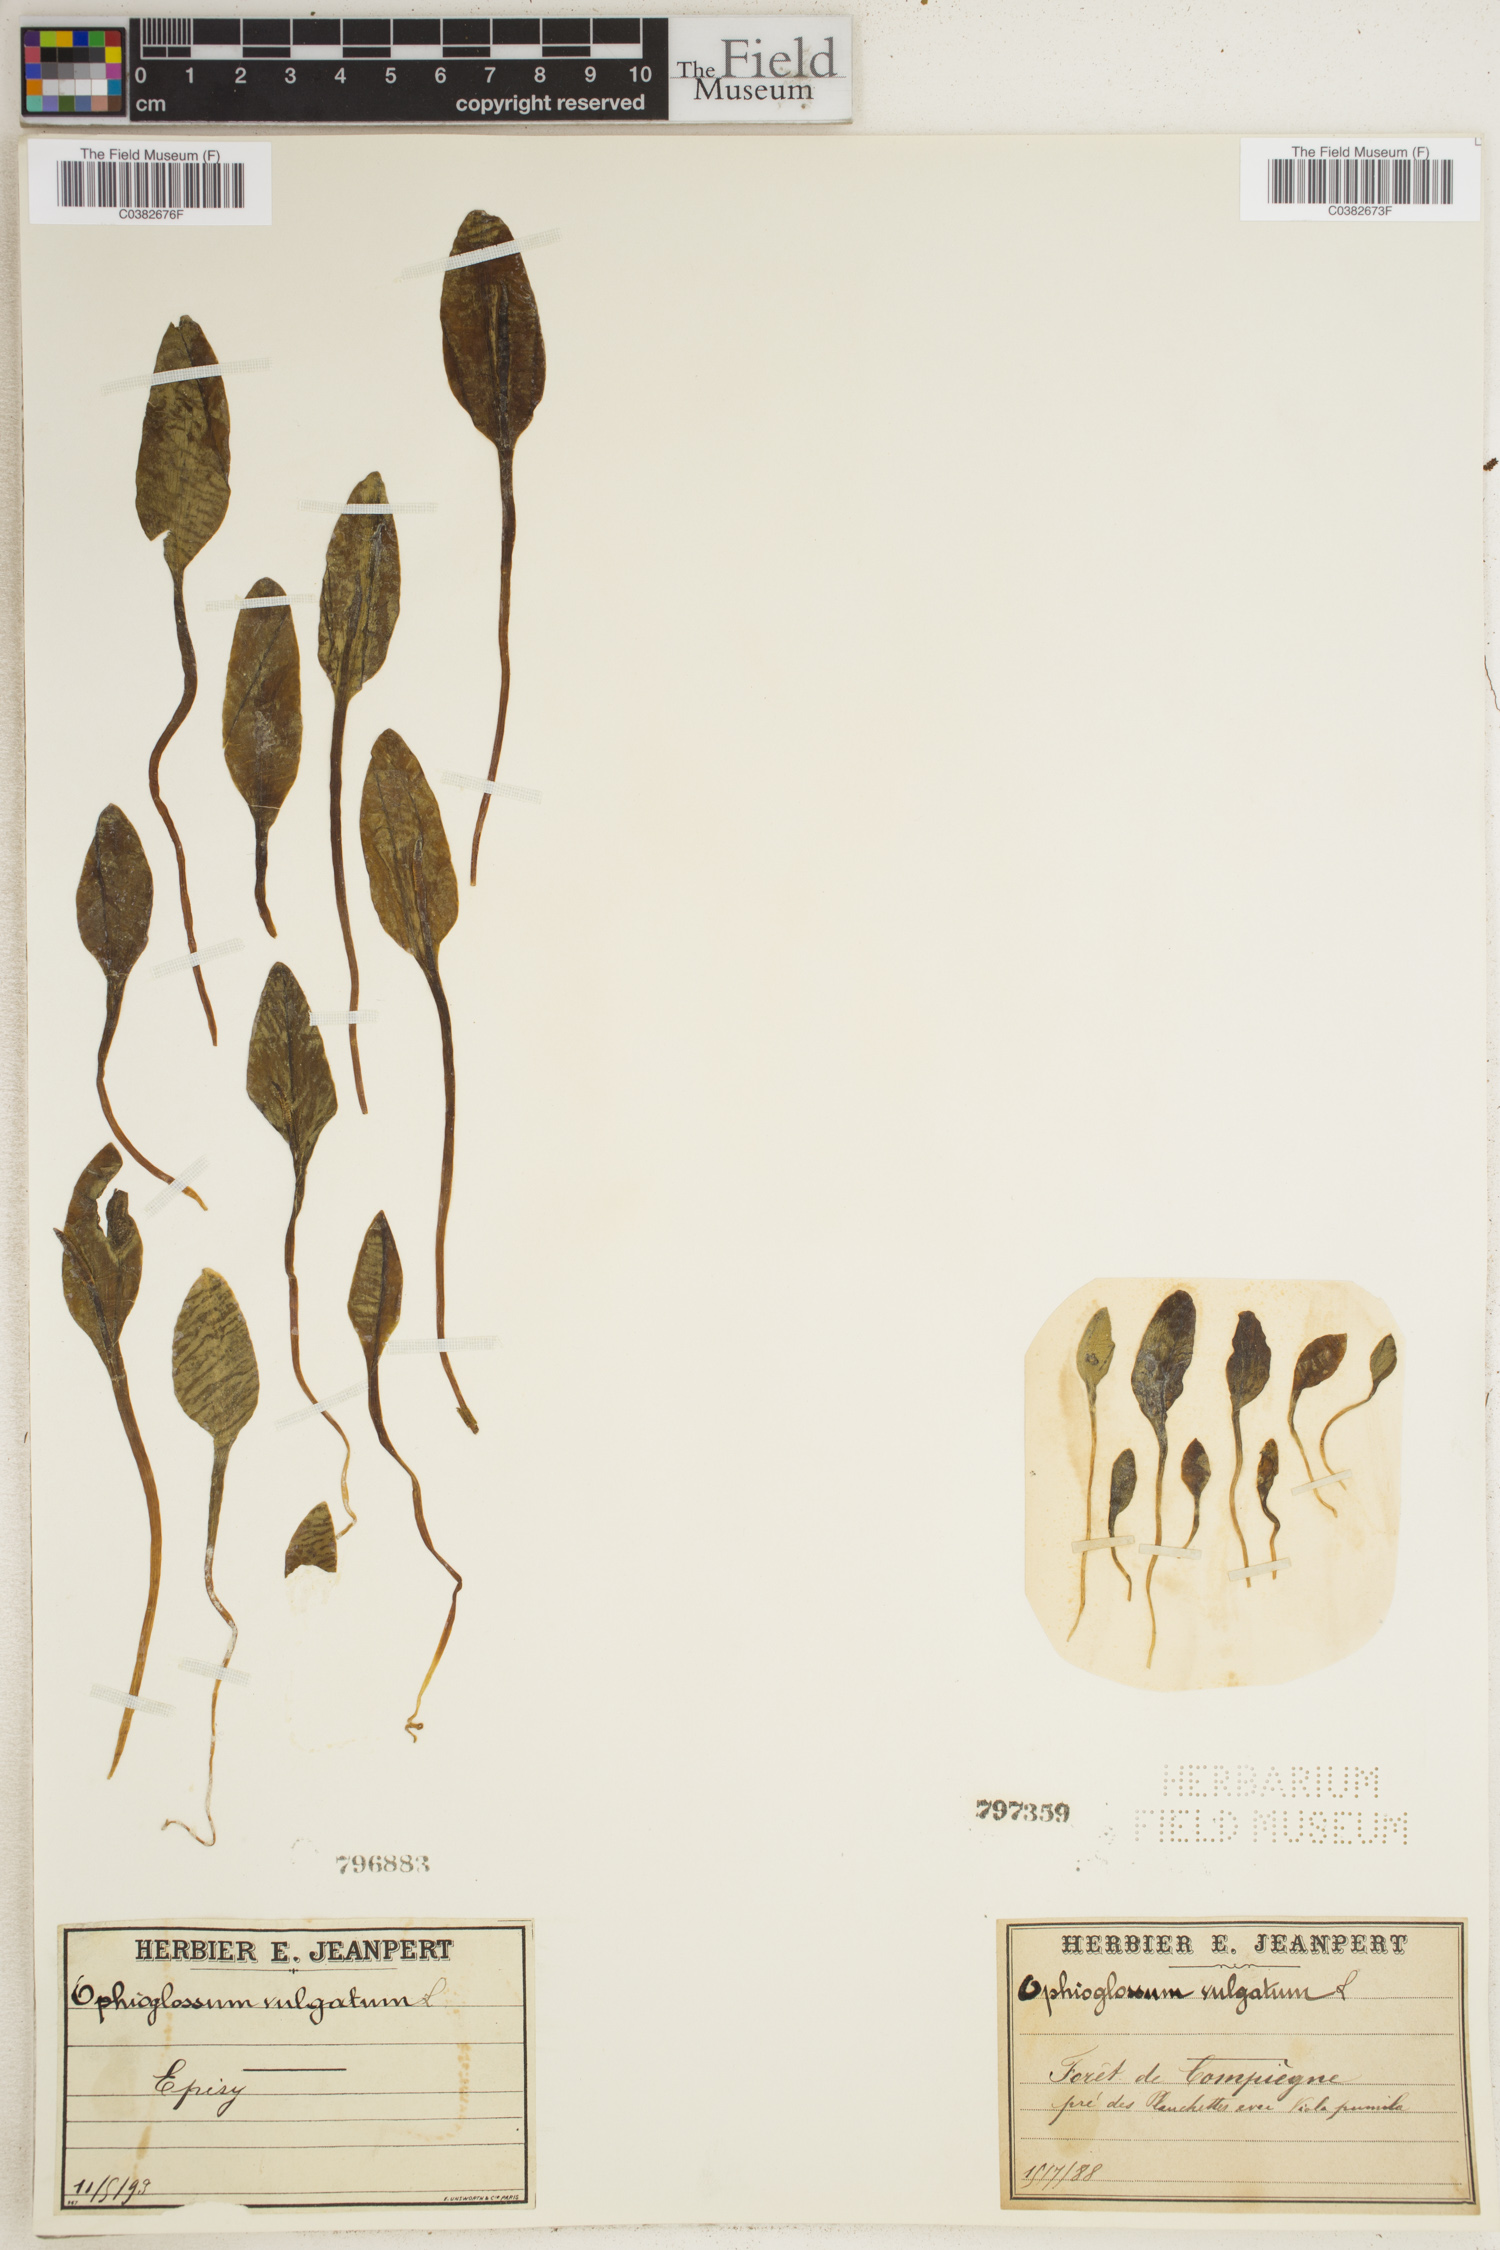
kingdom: Plantae
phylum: Tracheophyta
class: Polypodiopsida
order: Ophioglossales
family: Ophioglossaceae
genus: Ophioglossum
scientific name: Ophioglossum vulgatum
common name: Adder's-tongue
